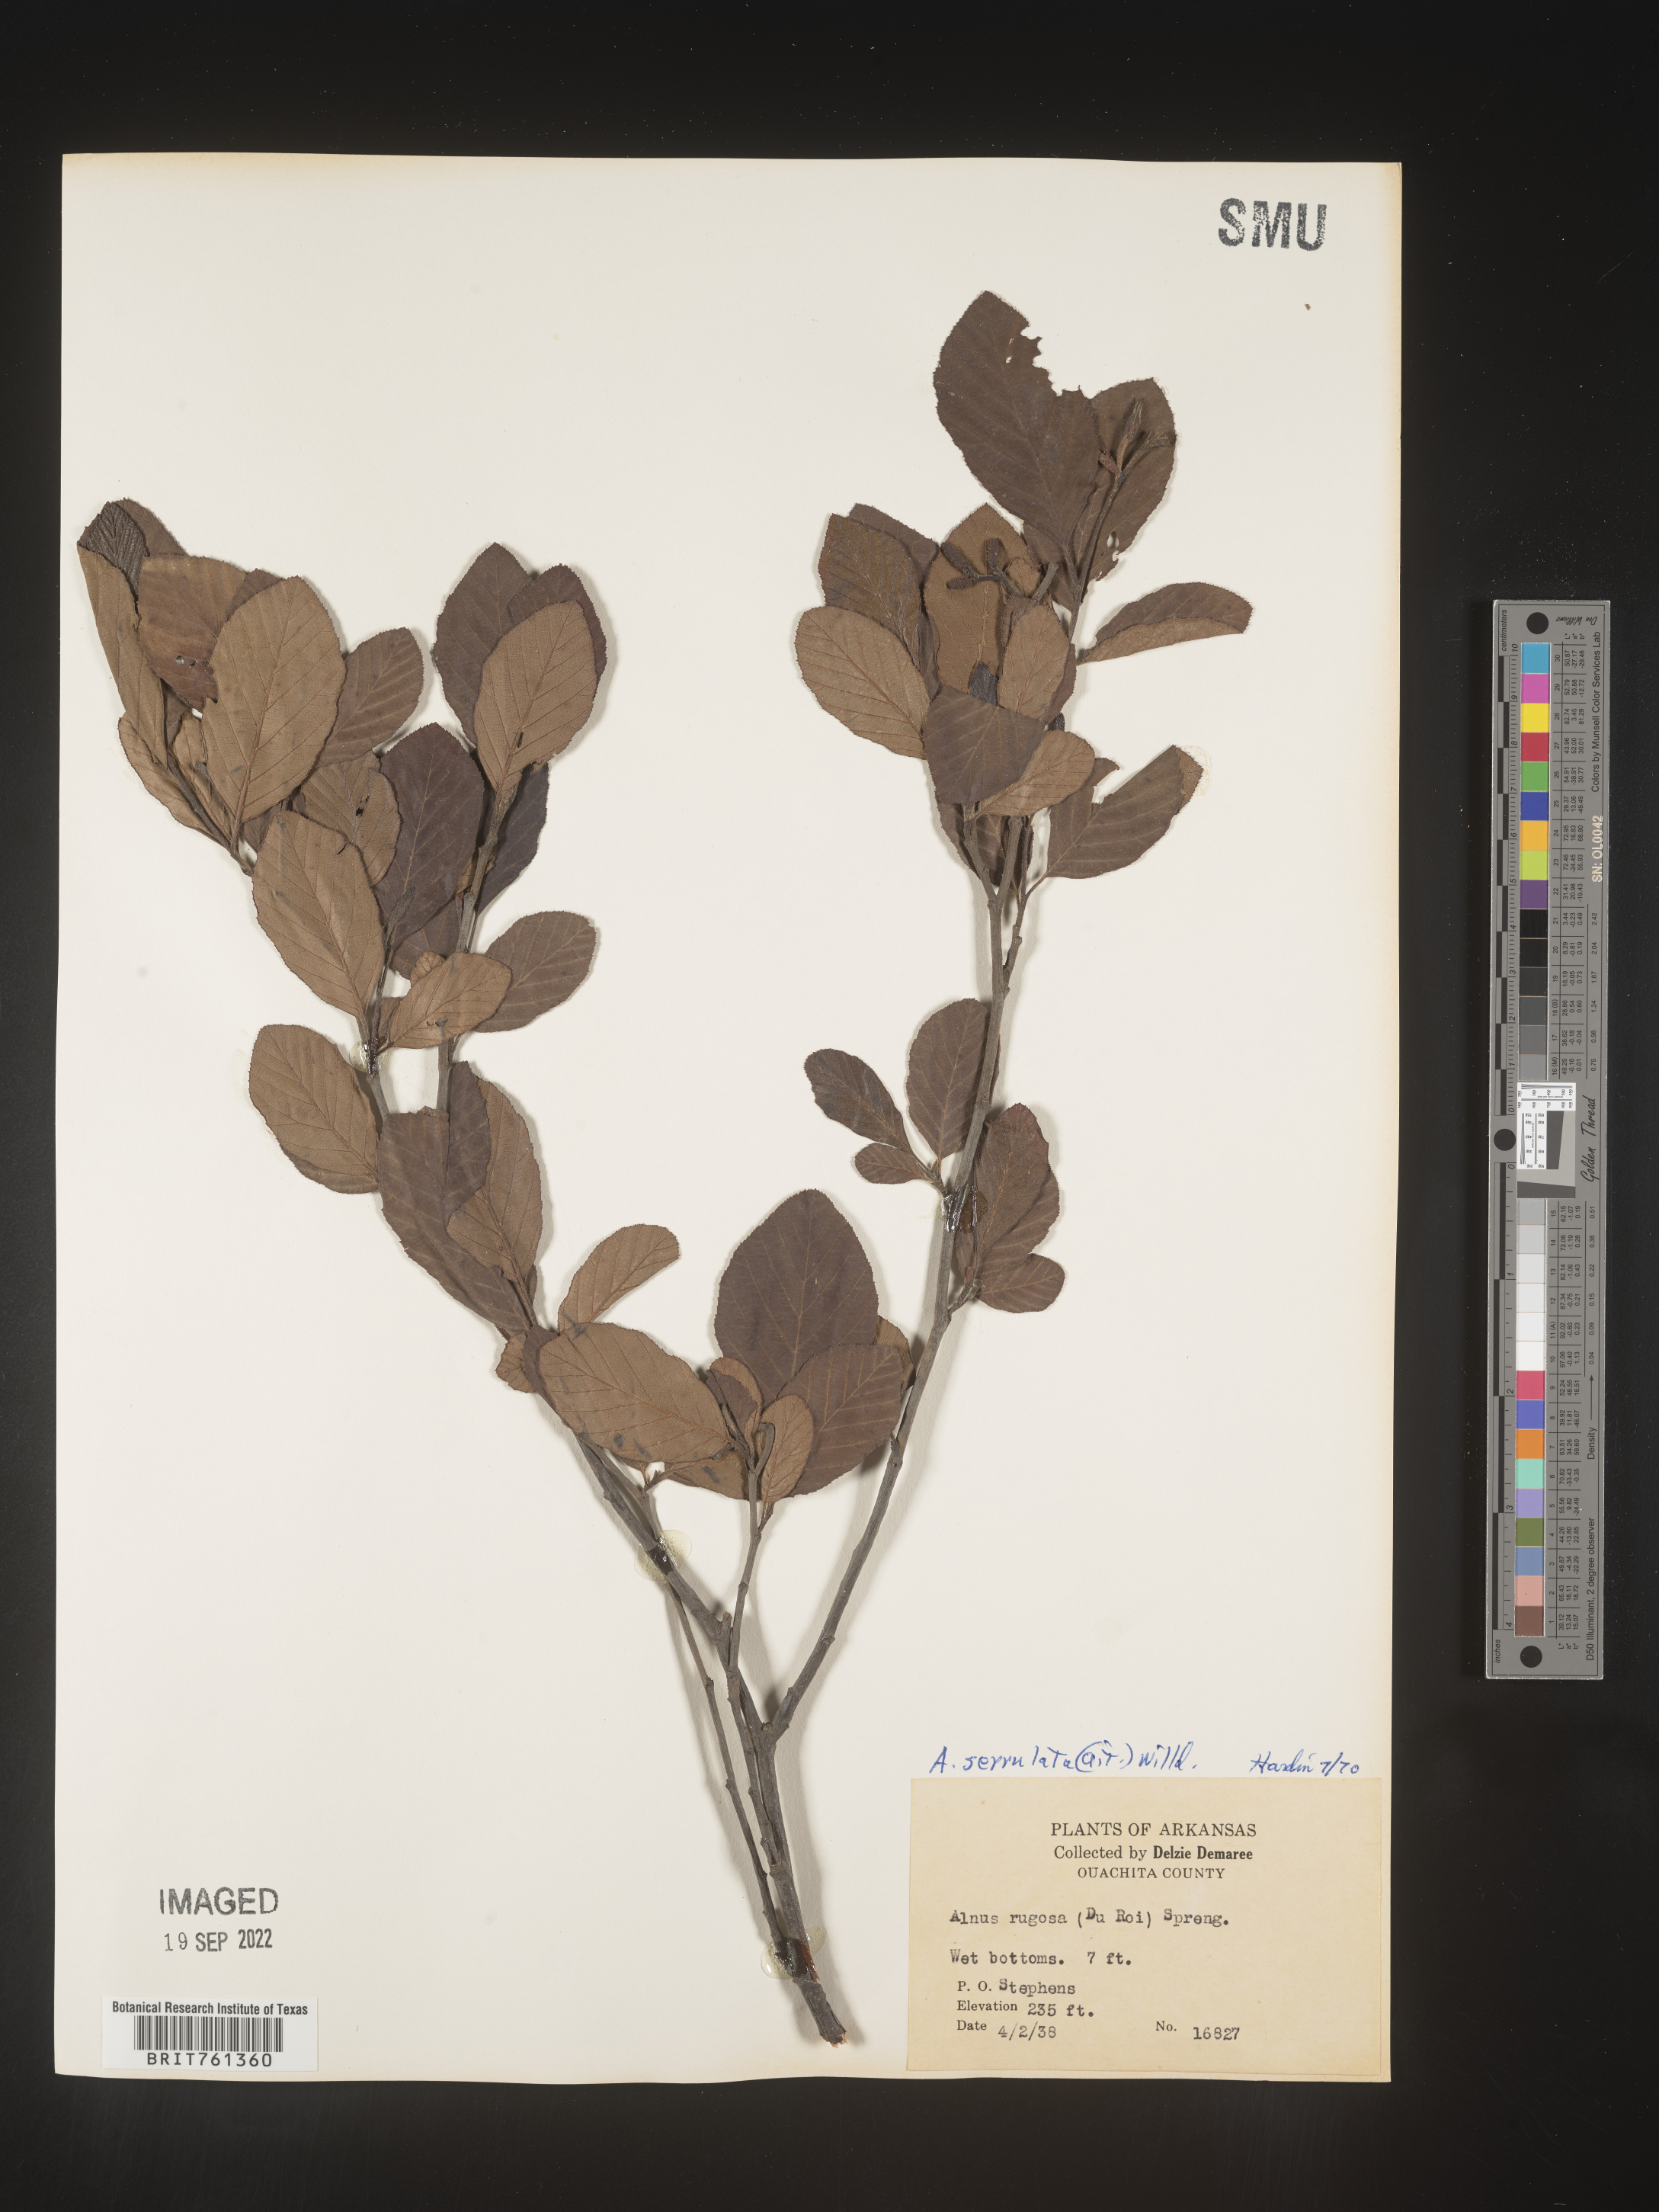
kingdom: Plantae
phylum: Tracheophyta
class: Magnoliopsida
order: Fagales
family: Betulaceae
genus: Alnus
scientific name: Alnus serrulata
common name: Hazel alder
